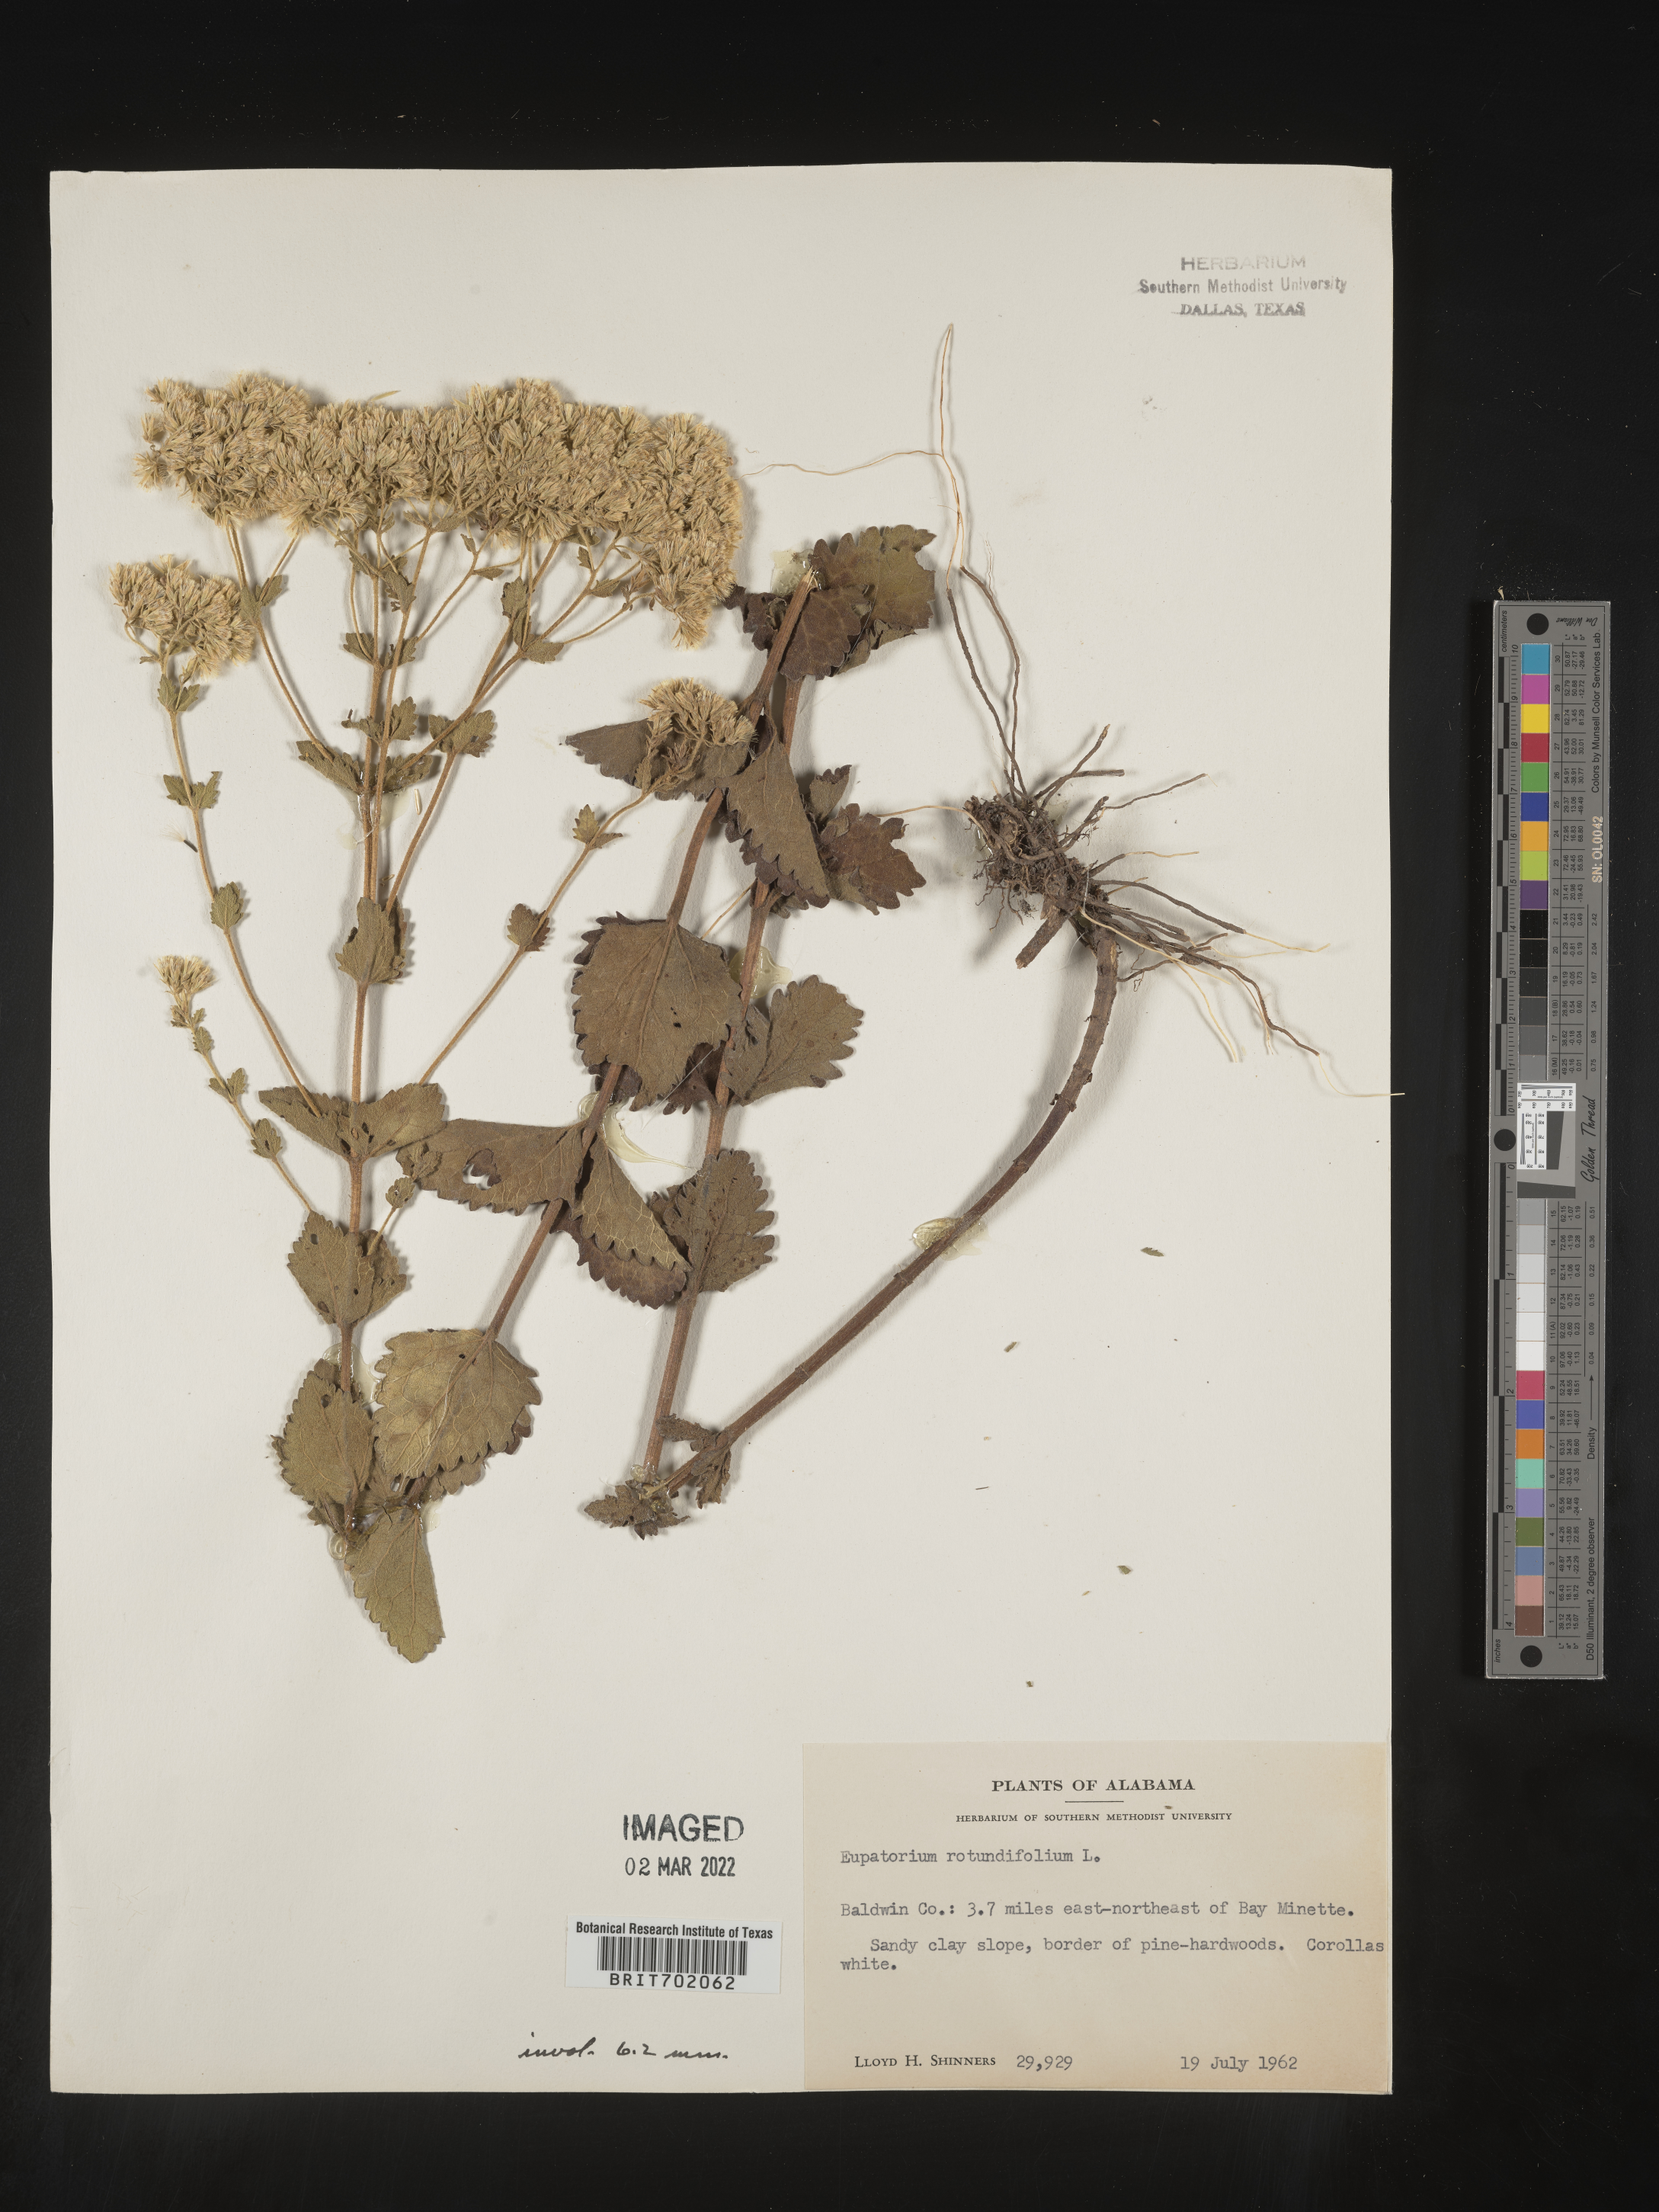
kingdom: Plantae
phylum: Tracheophyta
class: Magnoliopsida
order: Asterales
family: Asteraceae
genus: Eupatorium
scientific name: Eupatorium rotundifolium
